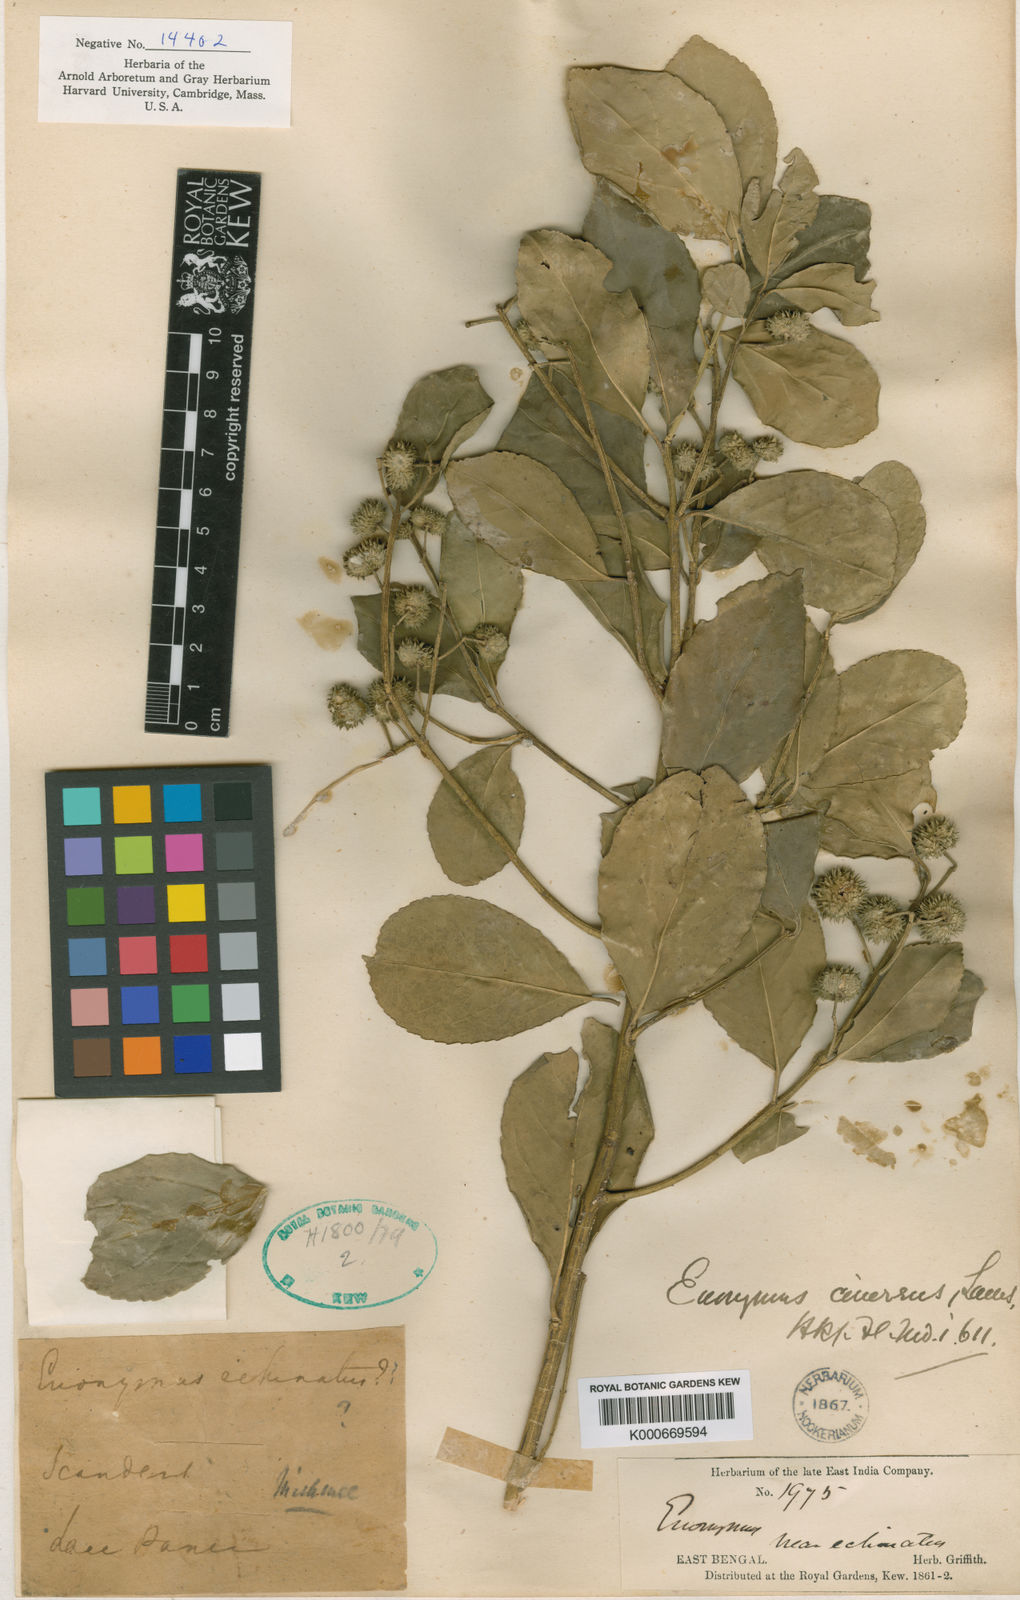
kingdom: Plantae
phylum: Tracheophyta
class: Magnoliopsida
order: Celastrales
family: Celastraceae
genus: Euonymus
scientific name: Euonymus cinereus
